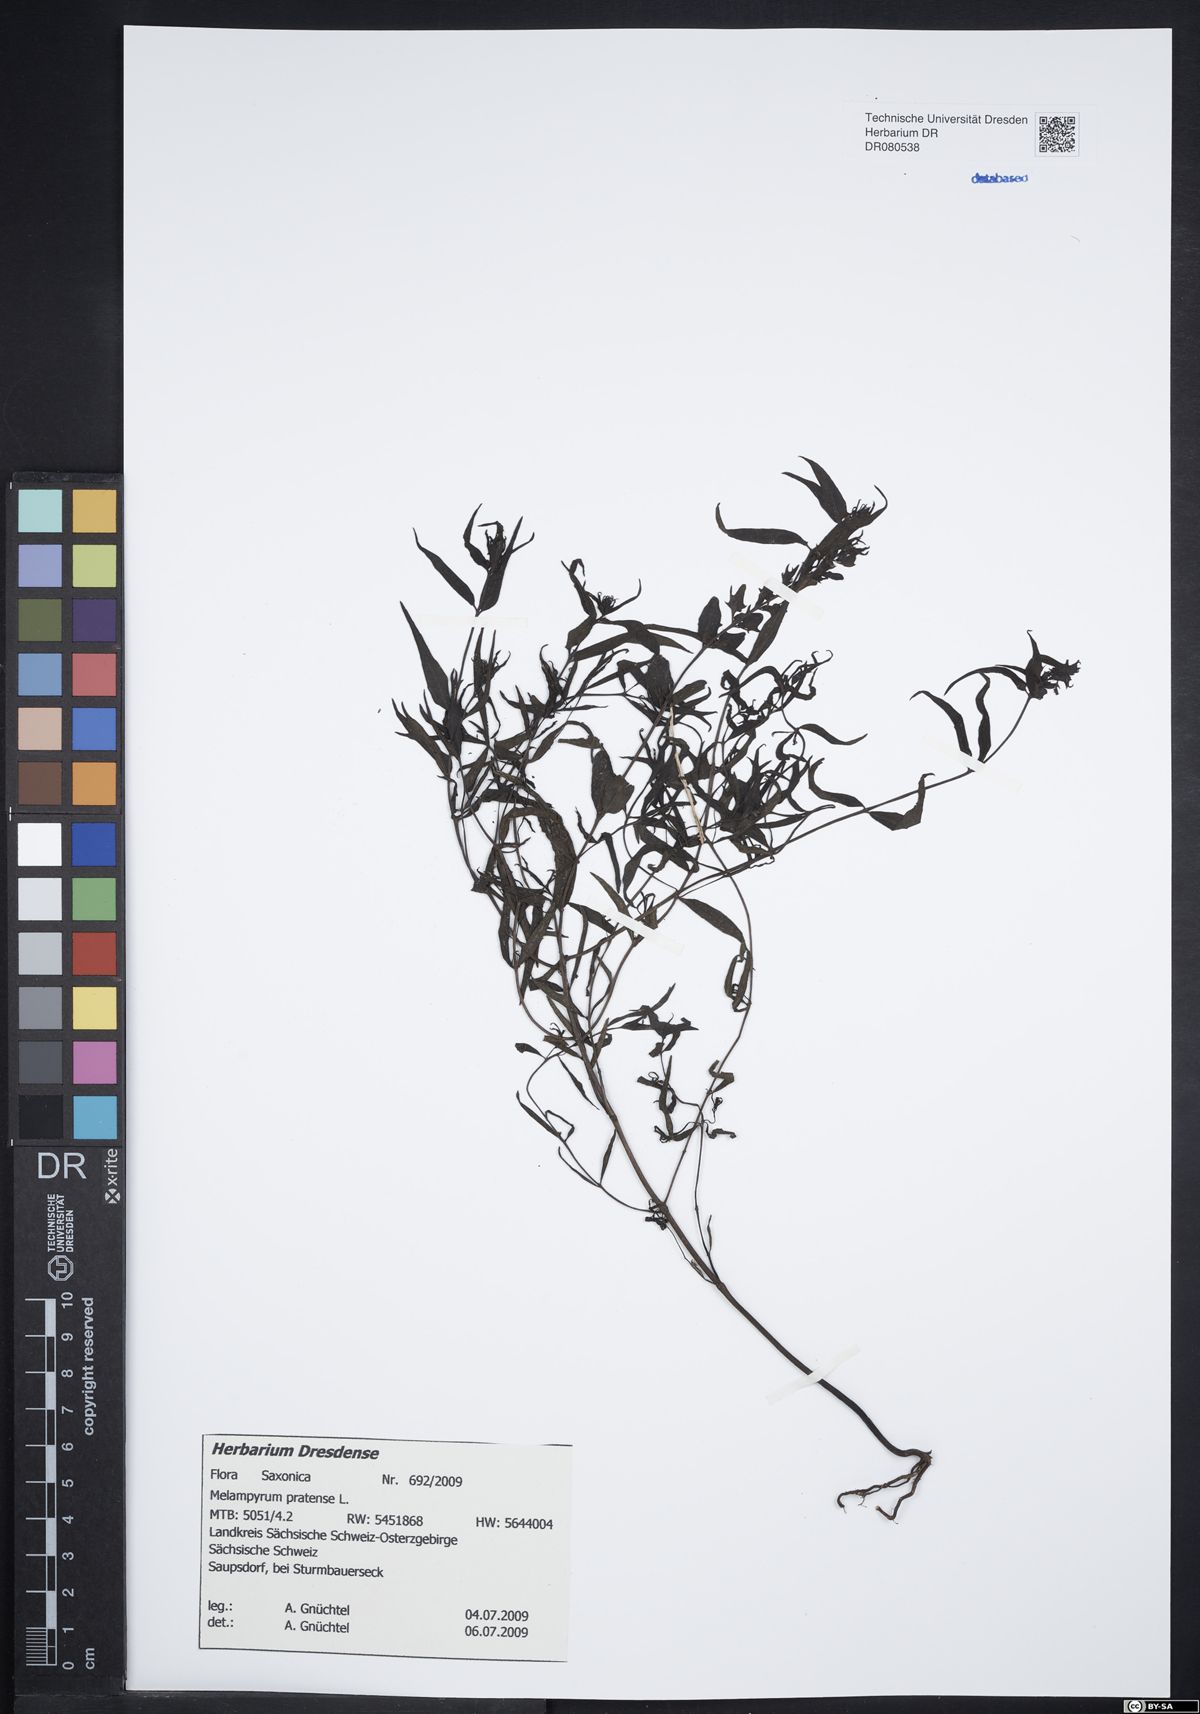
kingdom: Plantae
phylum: Tracheophyta
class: Magnoliopsida
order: Lamiales
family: Orobanchaceae
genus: Melampyrum
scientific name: Melampyrum pratense
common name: Common cow-wheat
